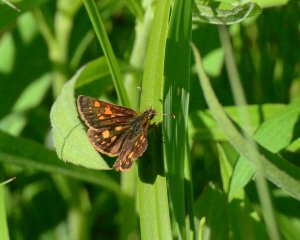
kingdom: Animalia
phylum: Arthropoda
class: Insecta
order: Lepidoptera
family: Hesperiidae
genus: Carterocephalus
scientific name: Carterocephalus palaemon
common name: Chequered Skipper
